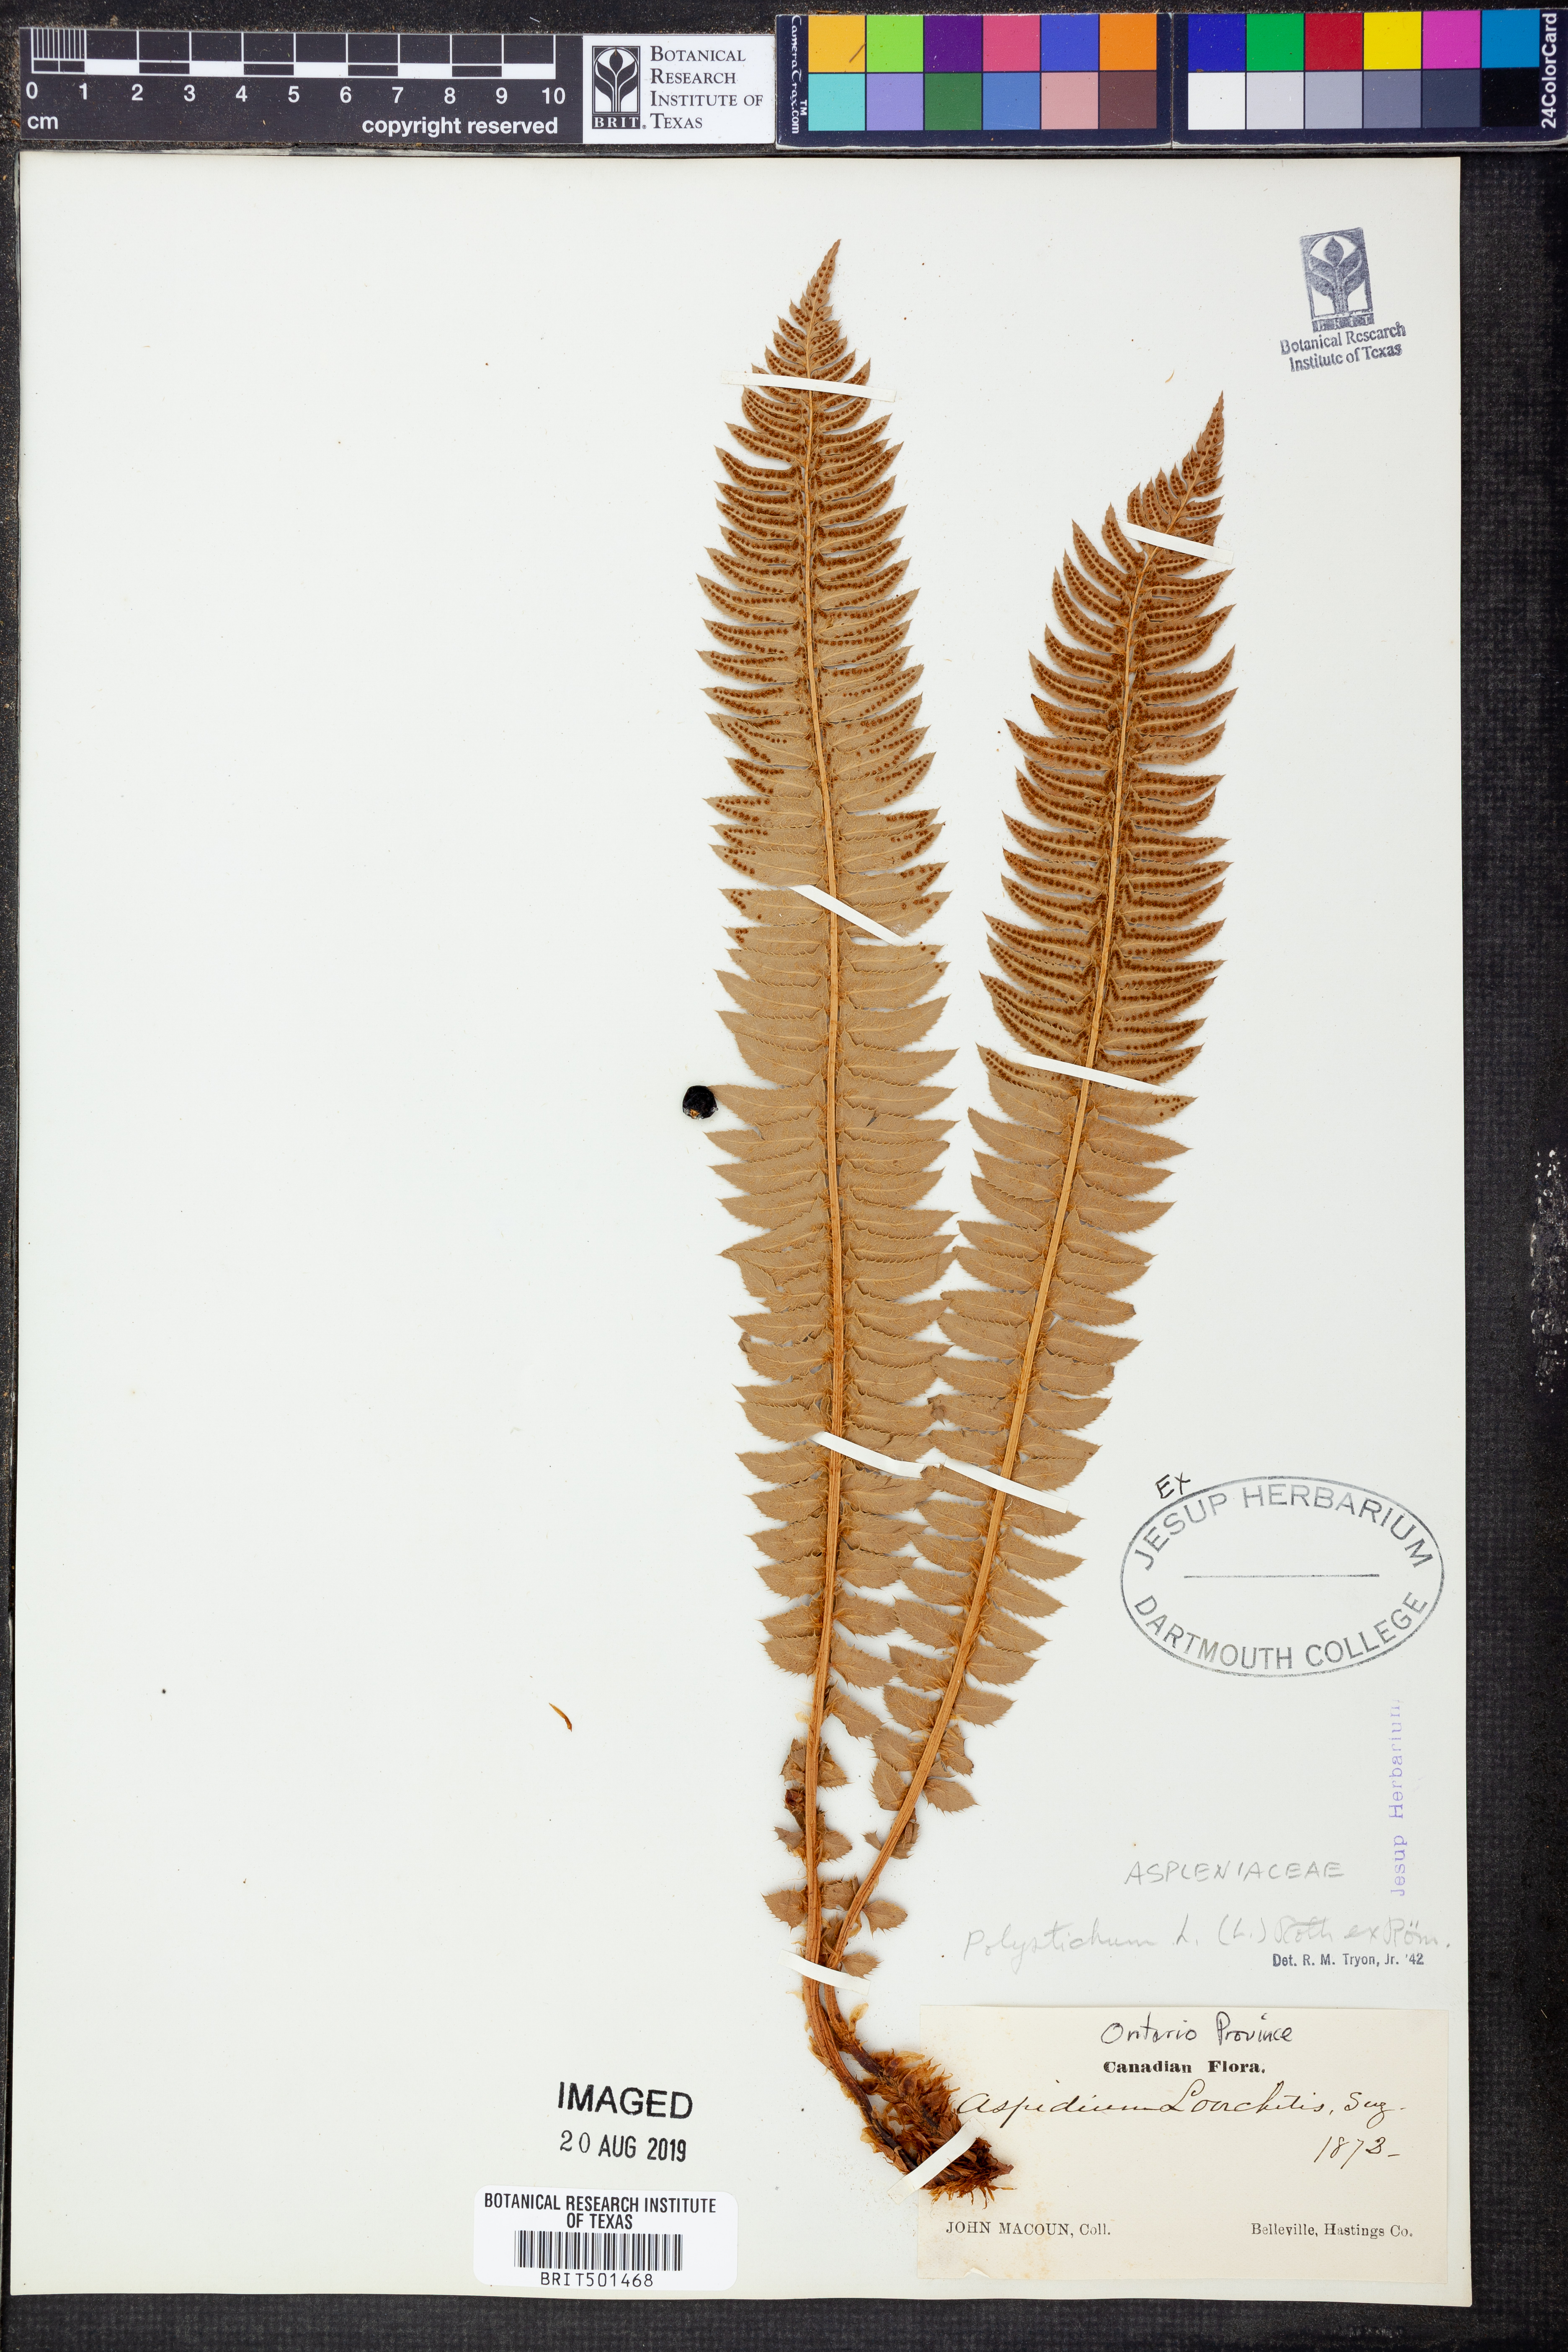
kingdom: Plantae
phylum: Tracheophyta
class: Polypodiopsida
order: Polypodiales
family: Dryopteridaceae
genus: Polystichum
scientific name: Polystichum lonchitis
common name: Holly fern
